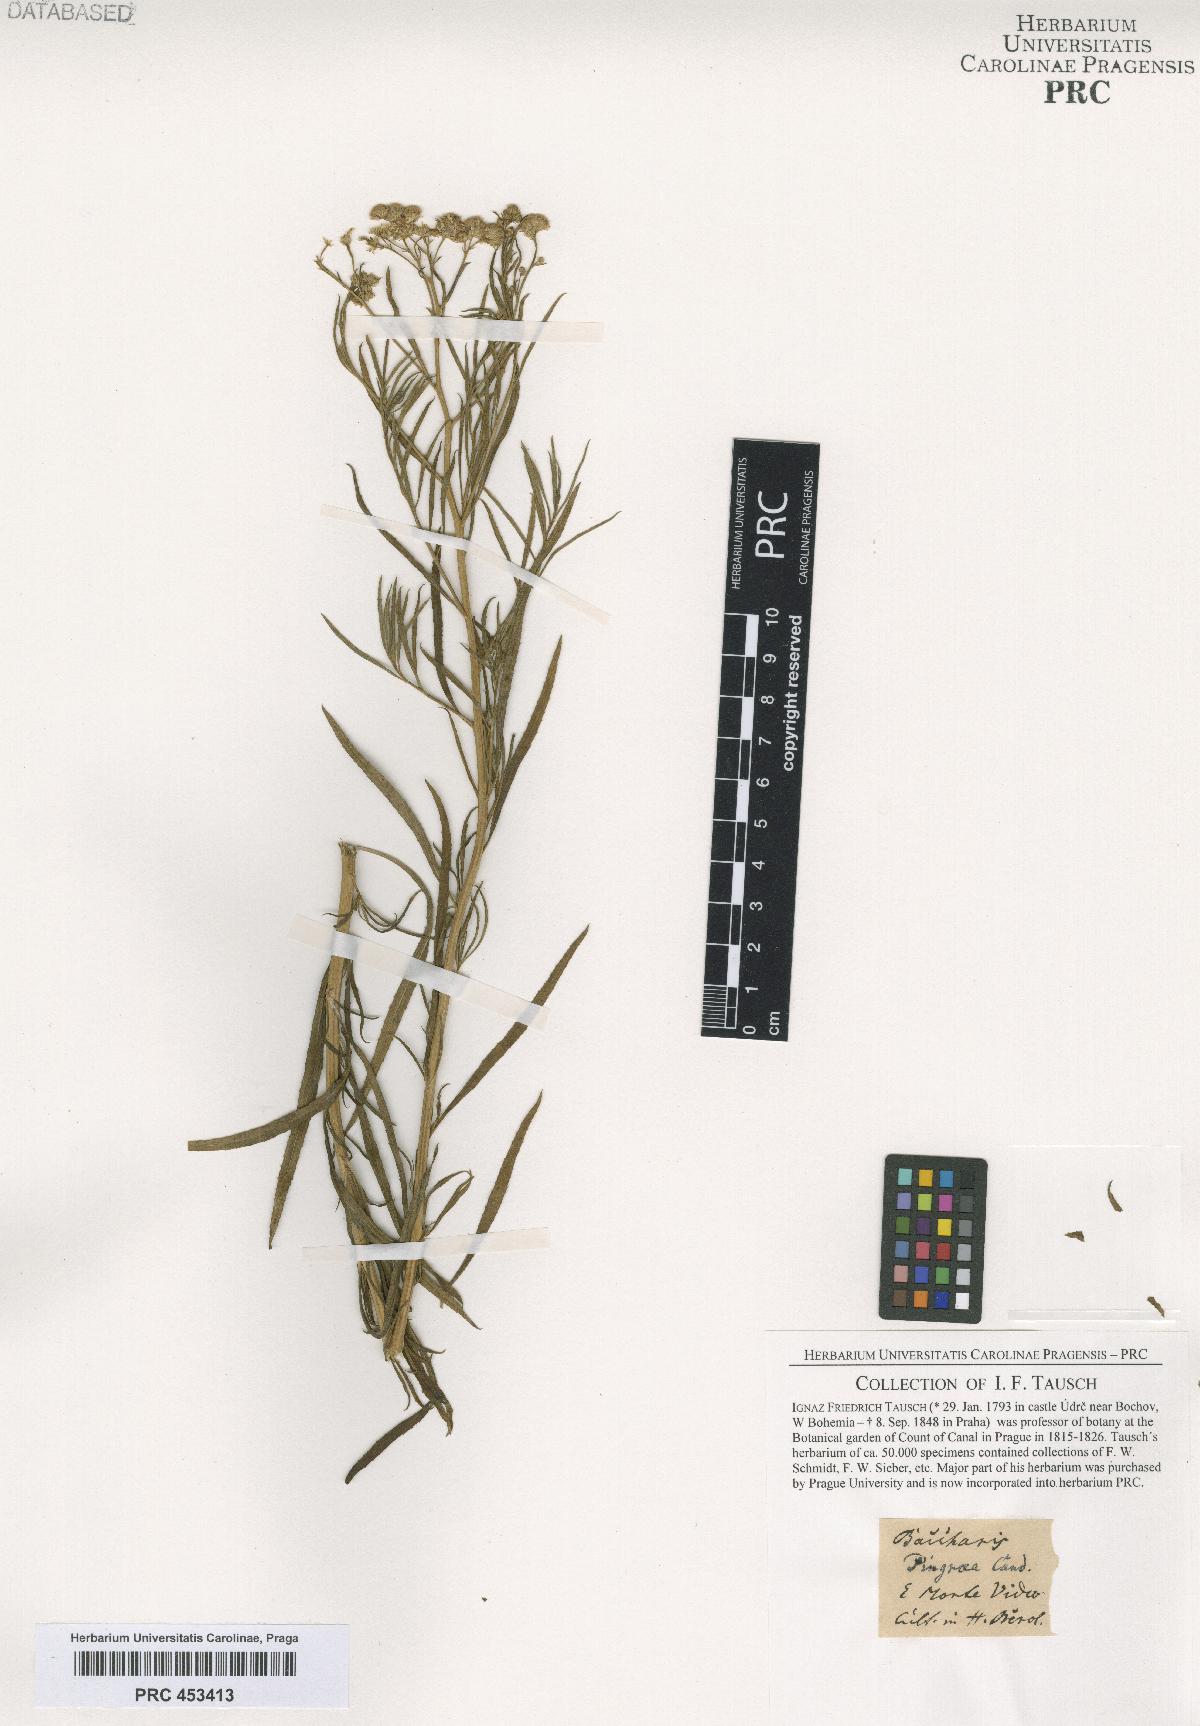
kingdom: Plantae
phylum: Tracheophyta
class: Magnoliopsida
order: Asterales
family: Asteraceae
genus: Baccharis
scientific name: Baccharis glutinosa
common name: Saltmarsh baccharis
